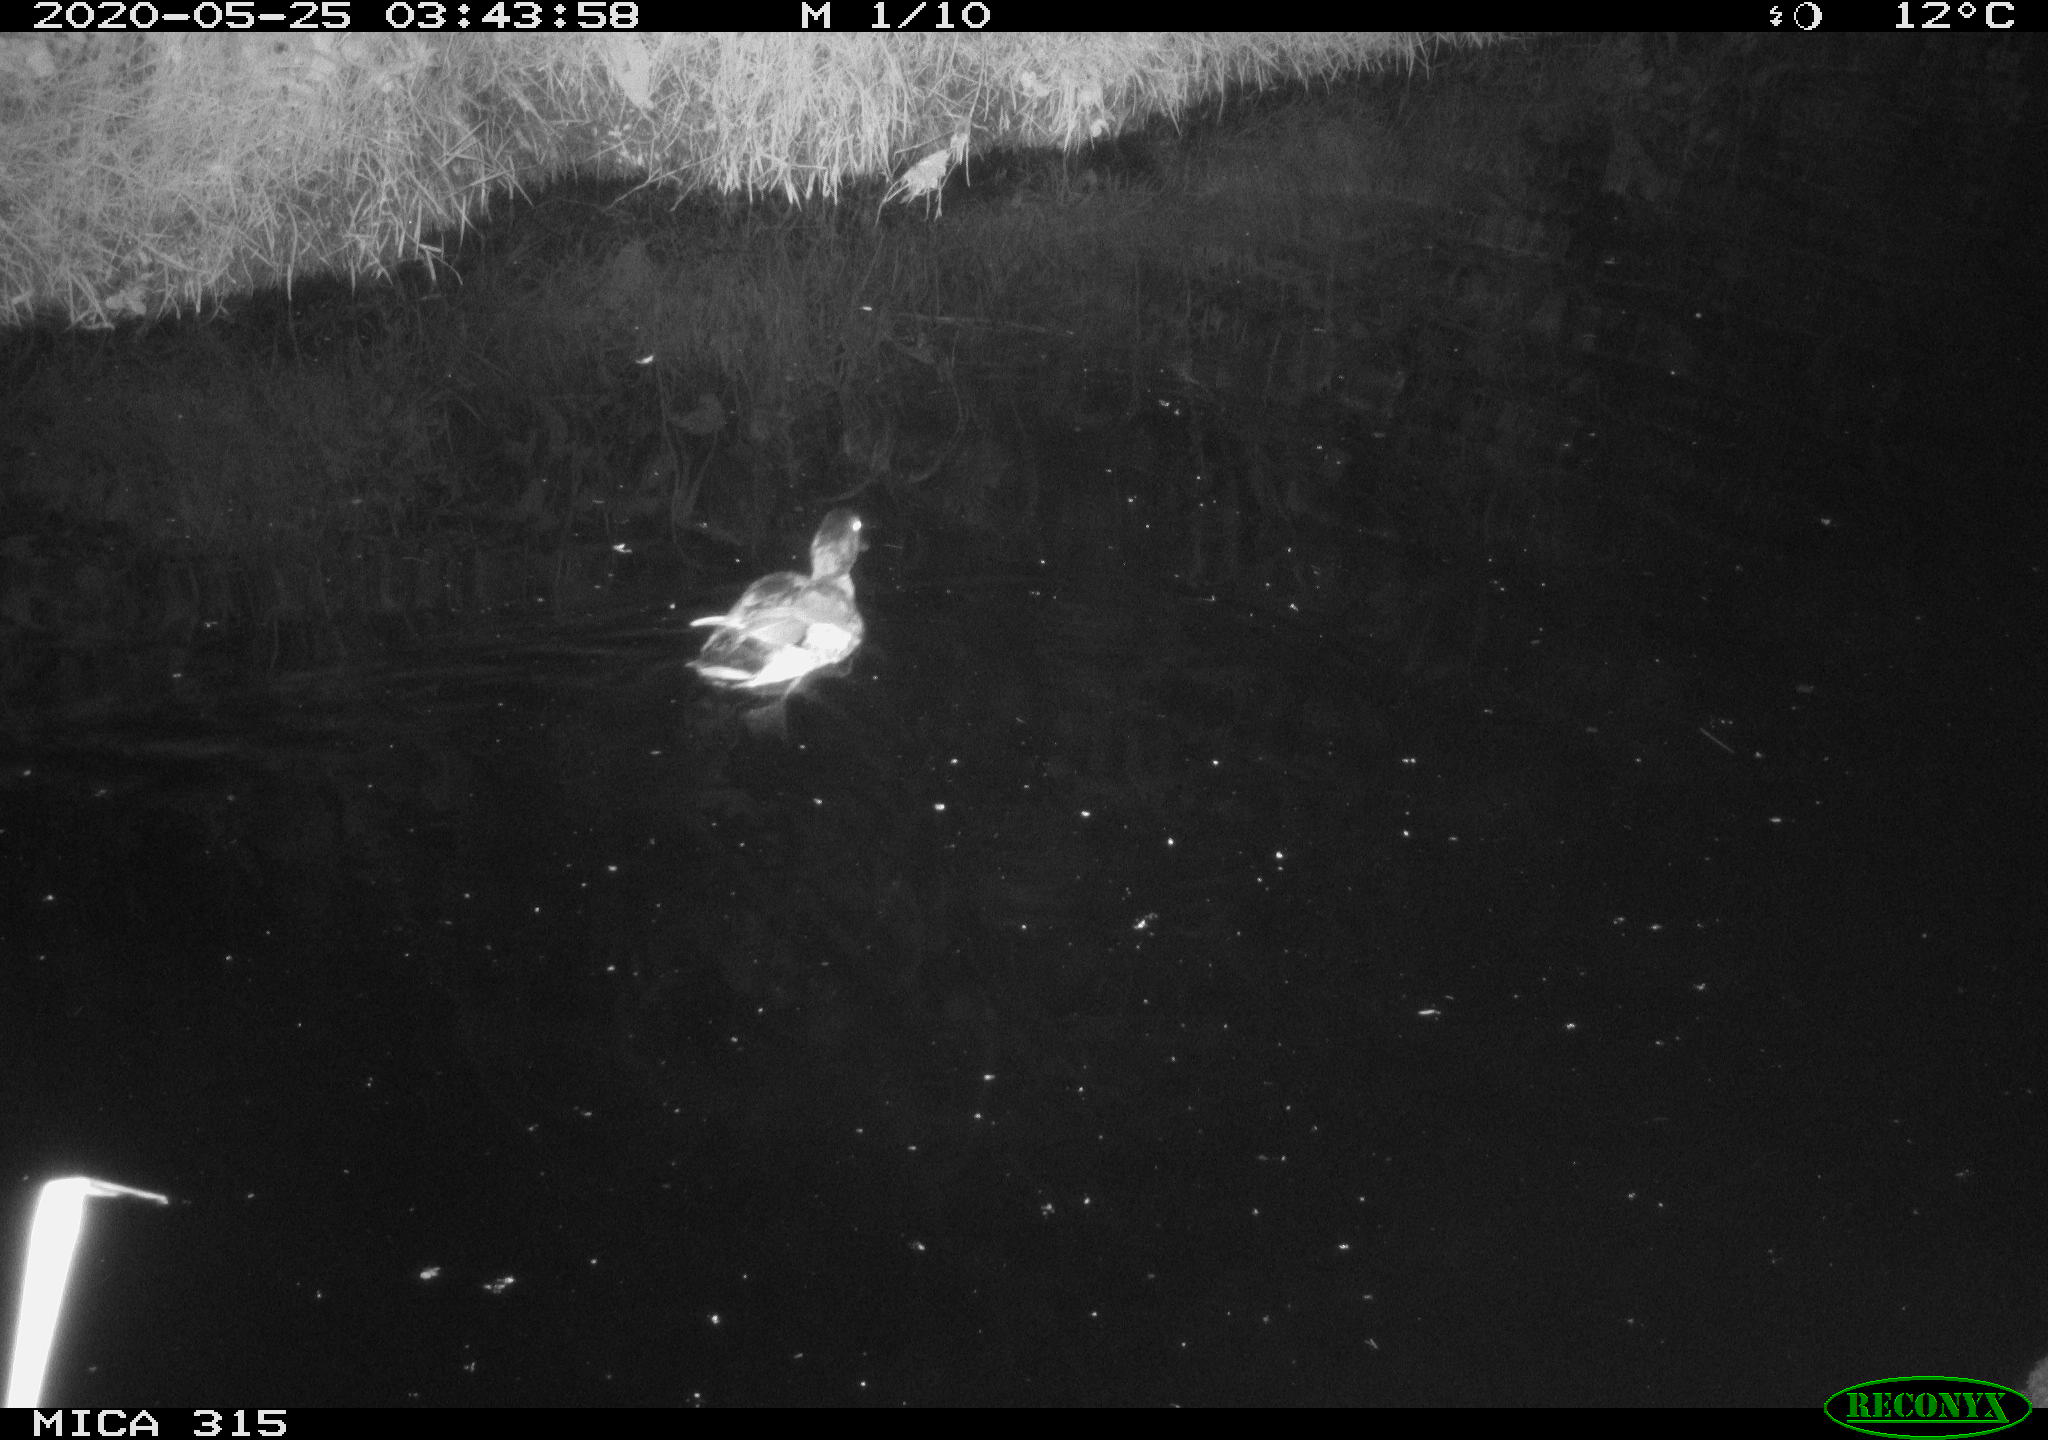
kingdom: Animalia
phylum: Chordata
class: Aves
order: Anseriformes
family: Anatidae
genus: Anas
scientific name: Anas platyrhynchos
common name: Mallard
